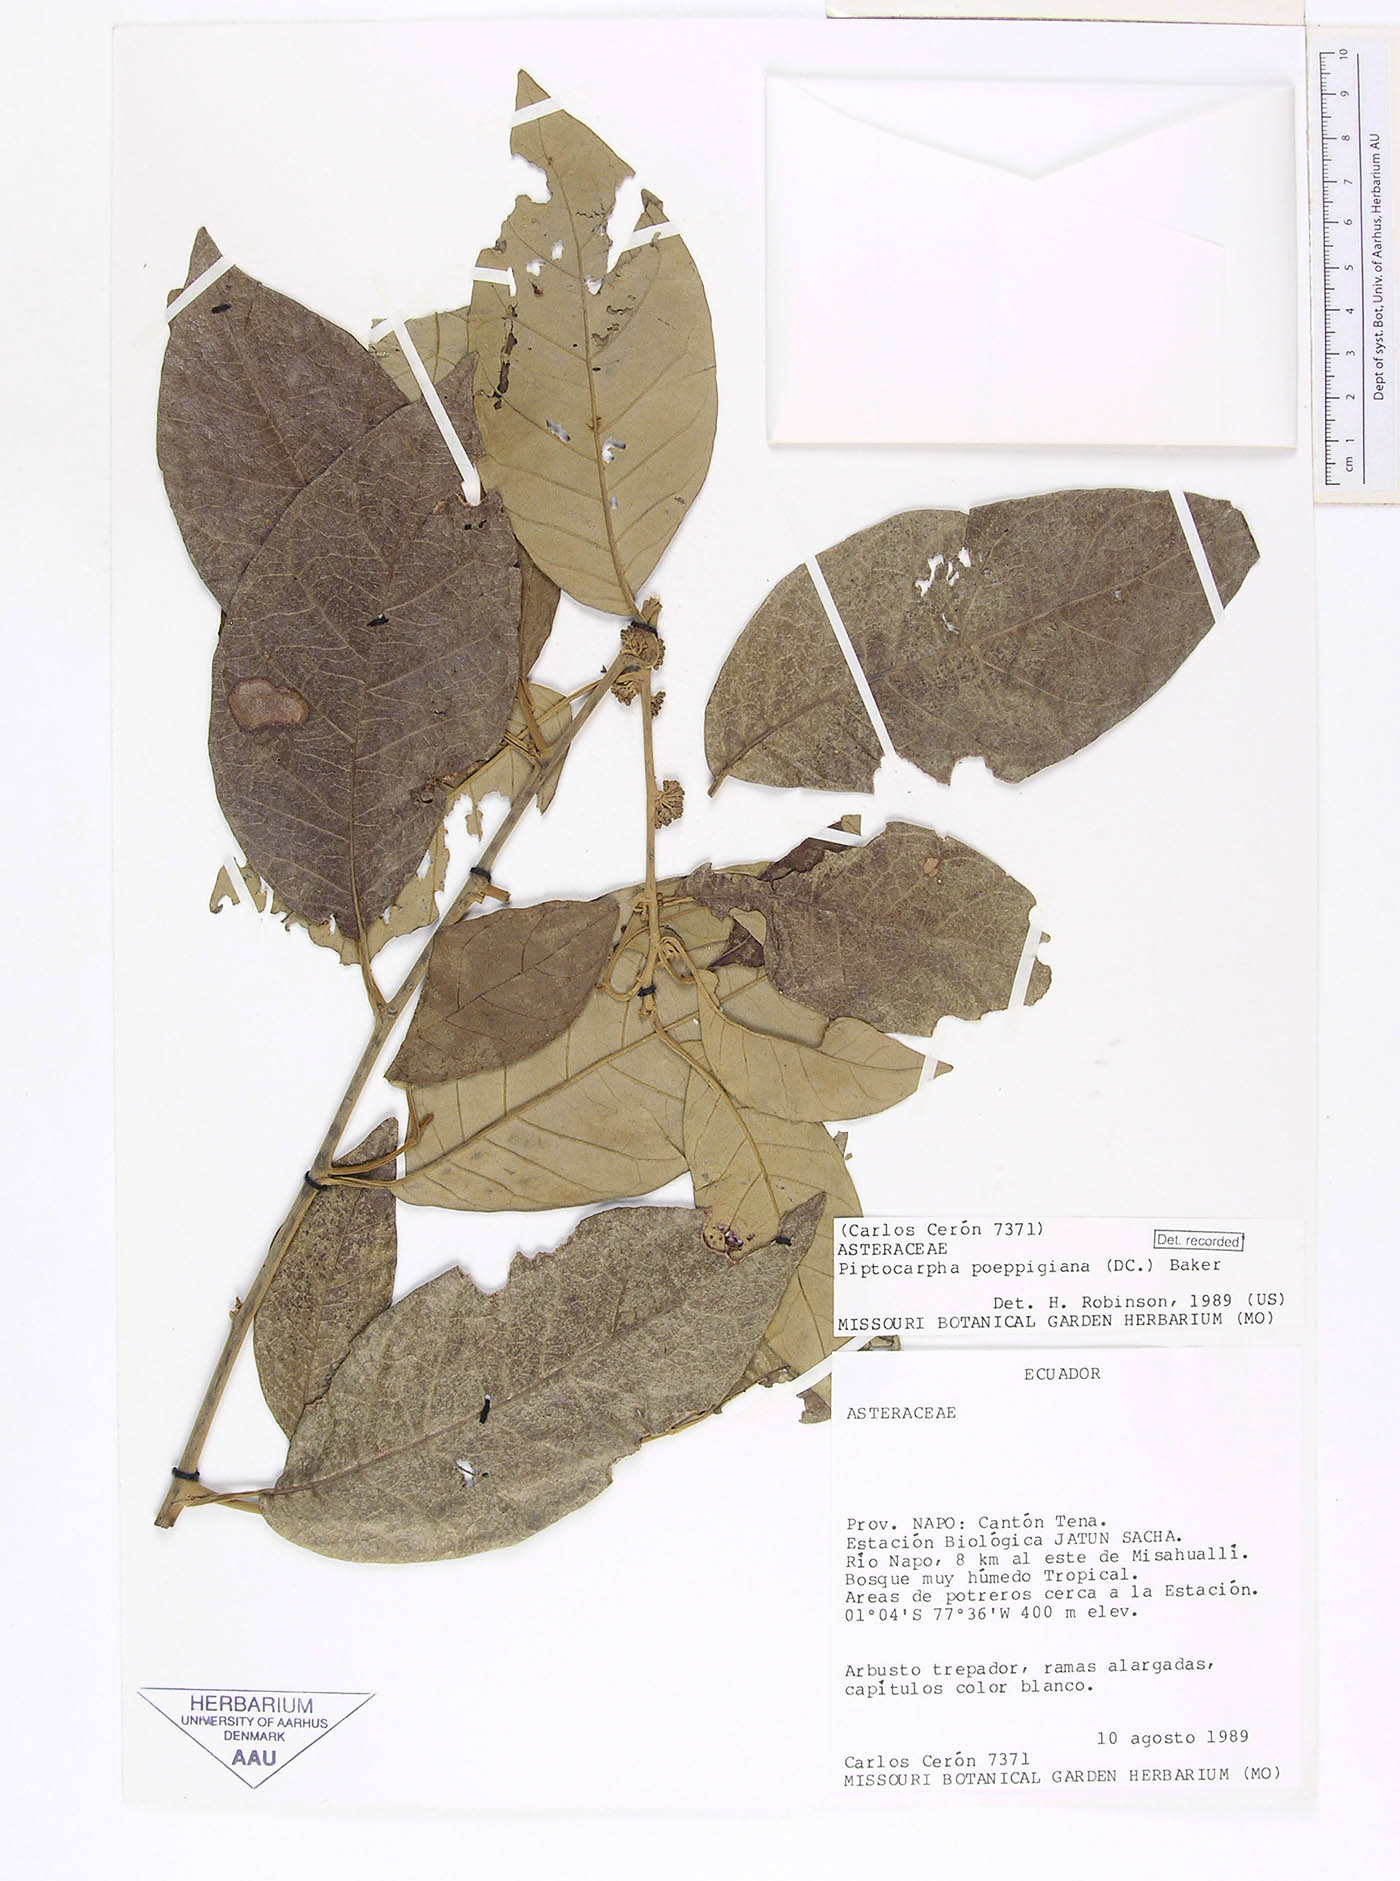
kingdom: Plantae
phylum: Tracheophyta
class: Magnoliopsida
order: Asterales
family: Asteraceae
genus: Piptocarpha
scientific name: Piptocarpha poeppigiana
